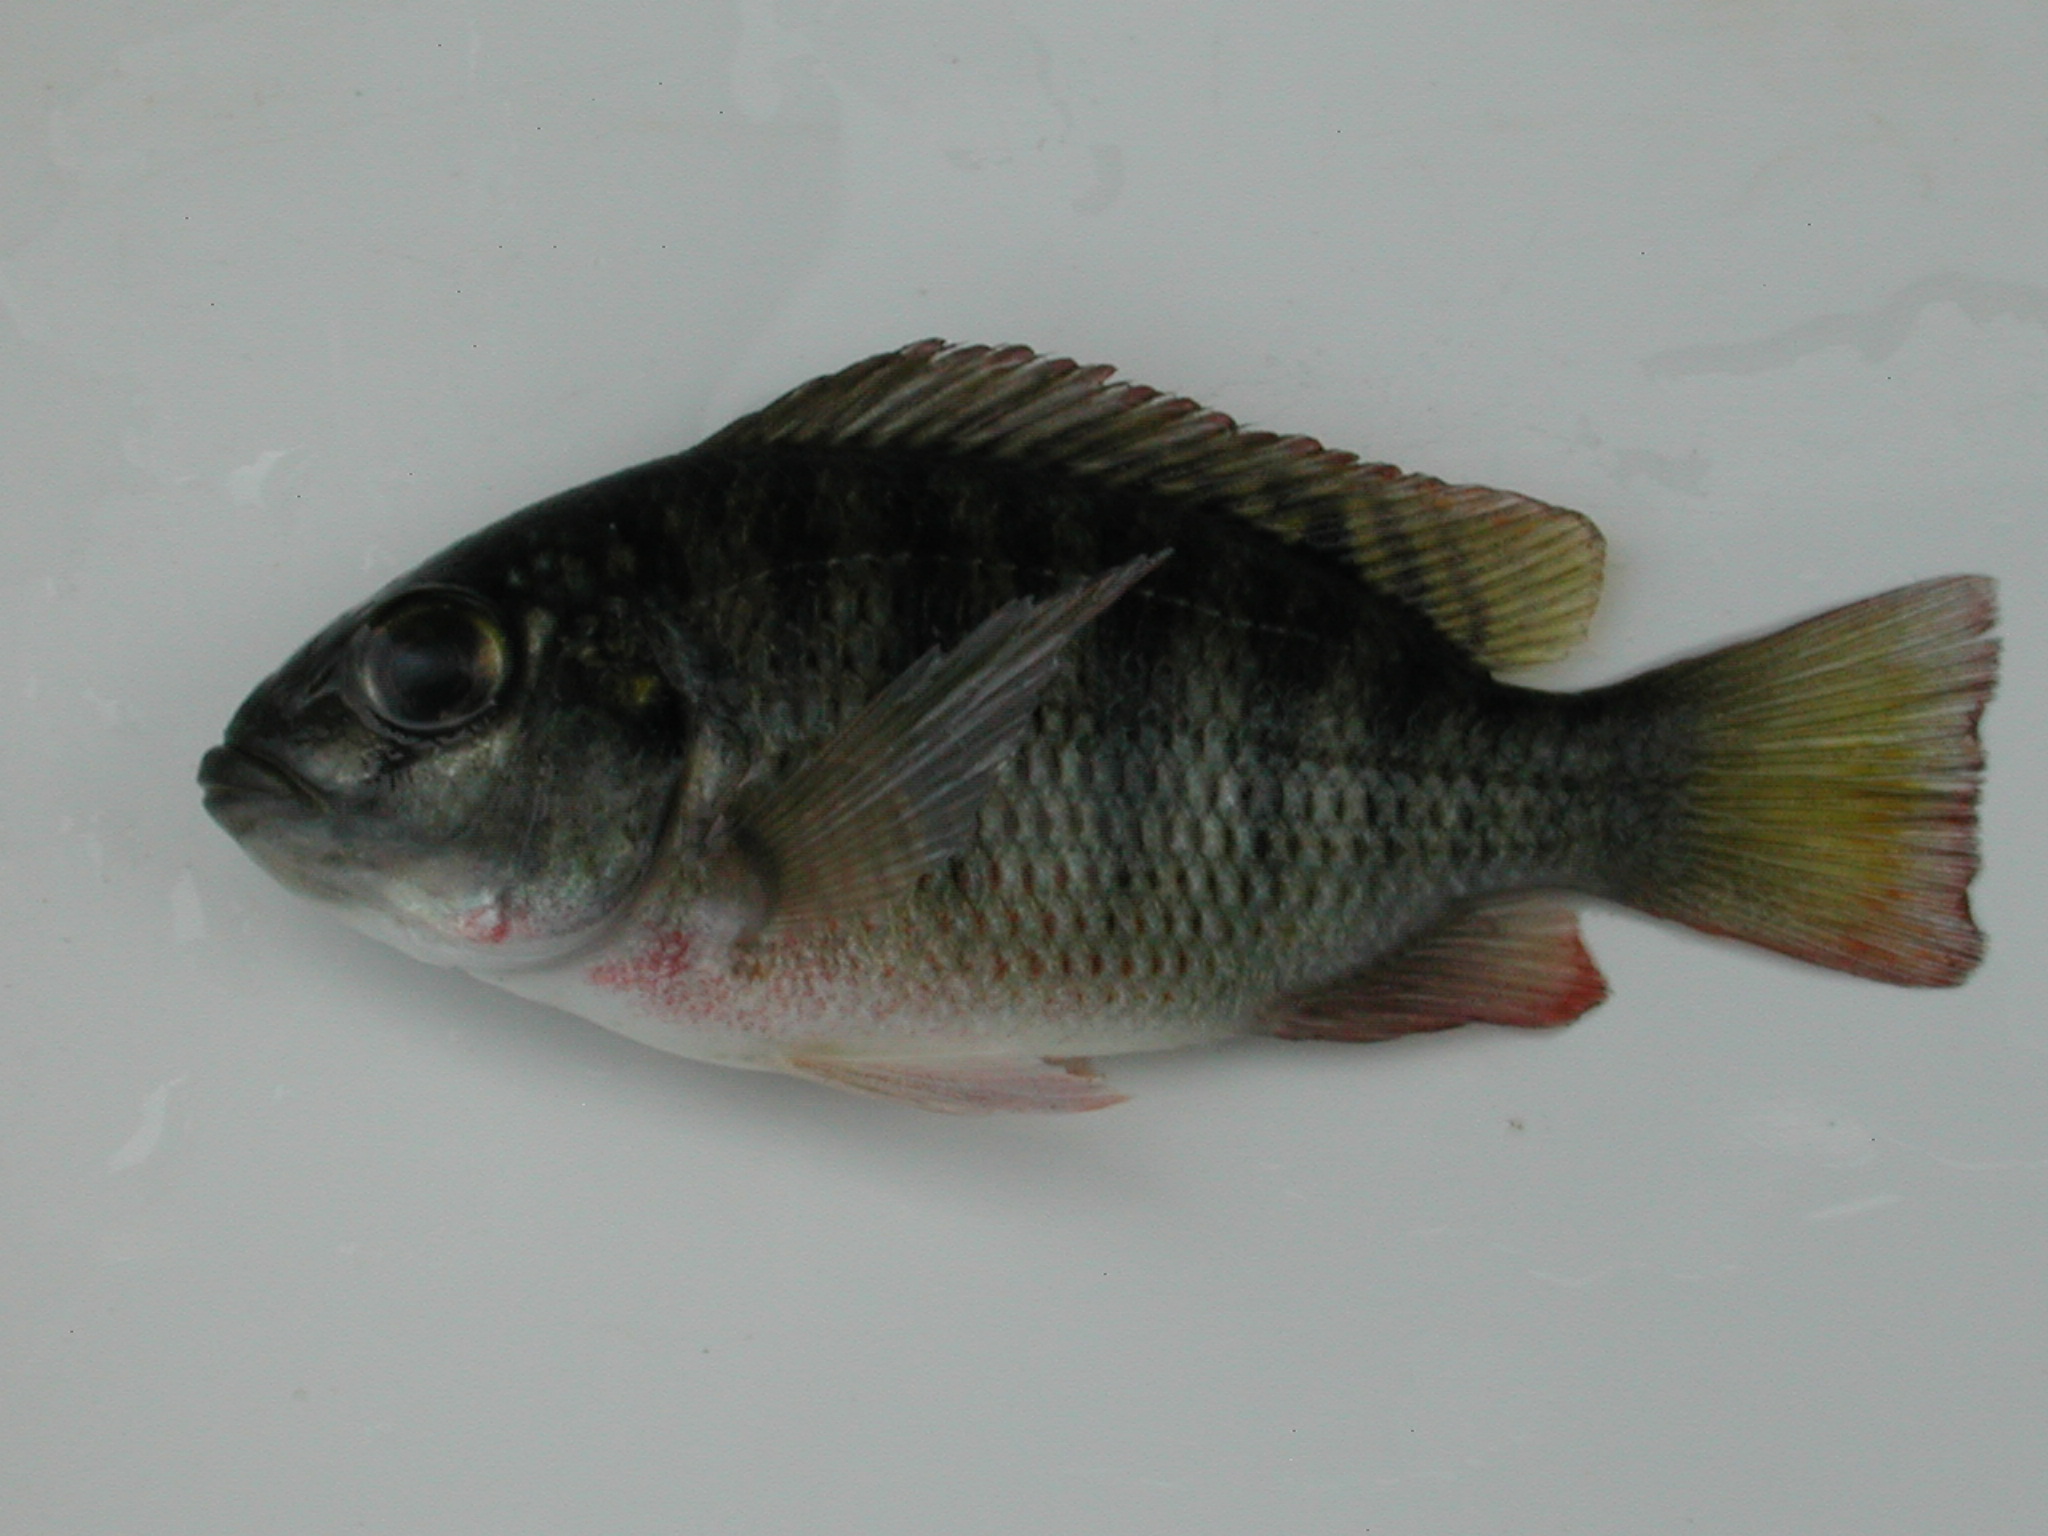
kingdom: Animalia
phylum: Chordata
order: Perciformes
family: Cichlidae
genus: Coptodon
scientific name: Coptodon rendalli
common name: Redbreast tilapia
